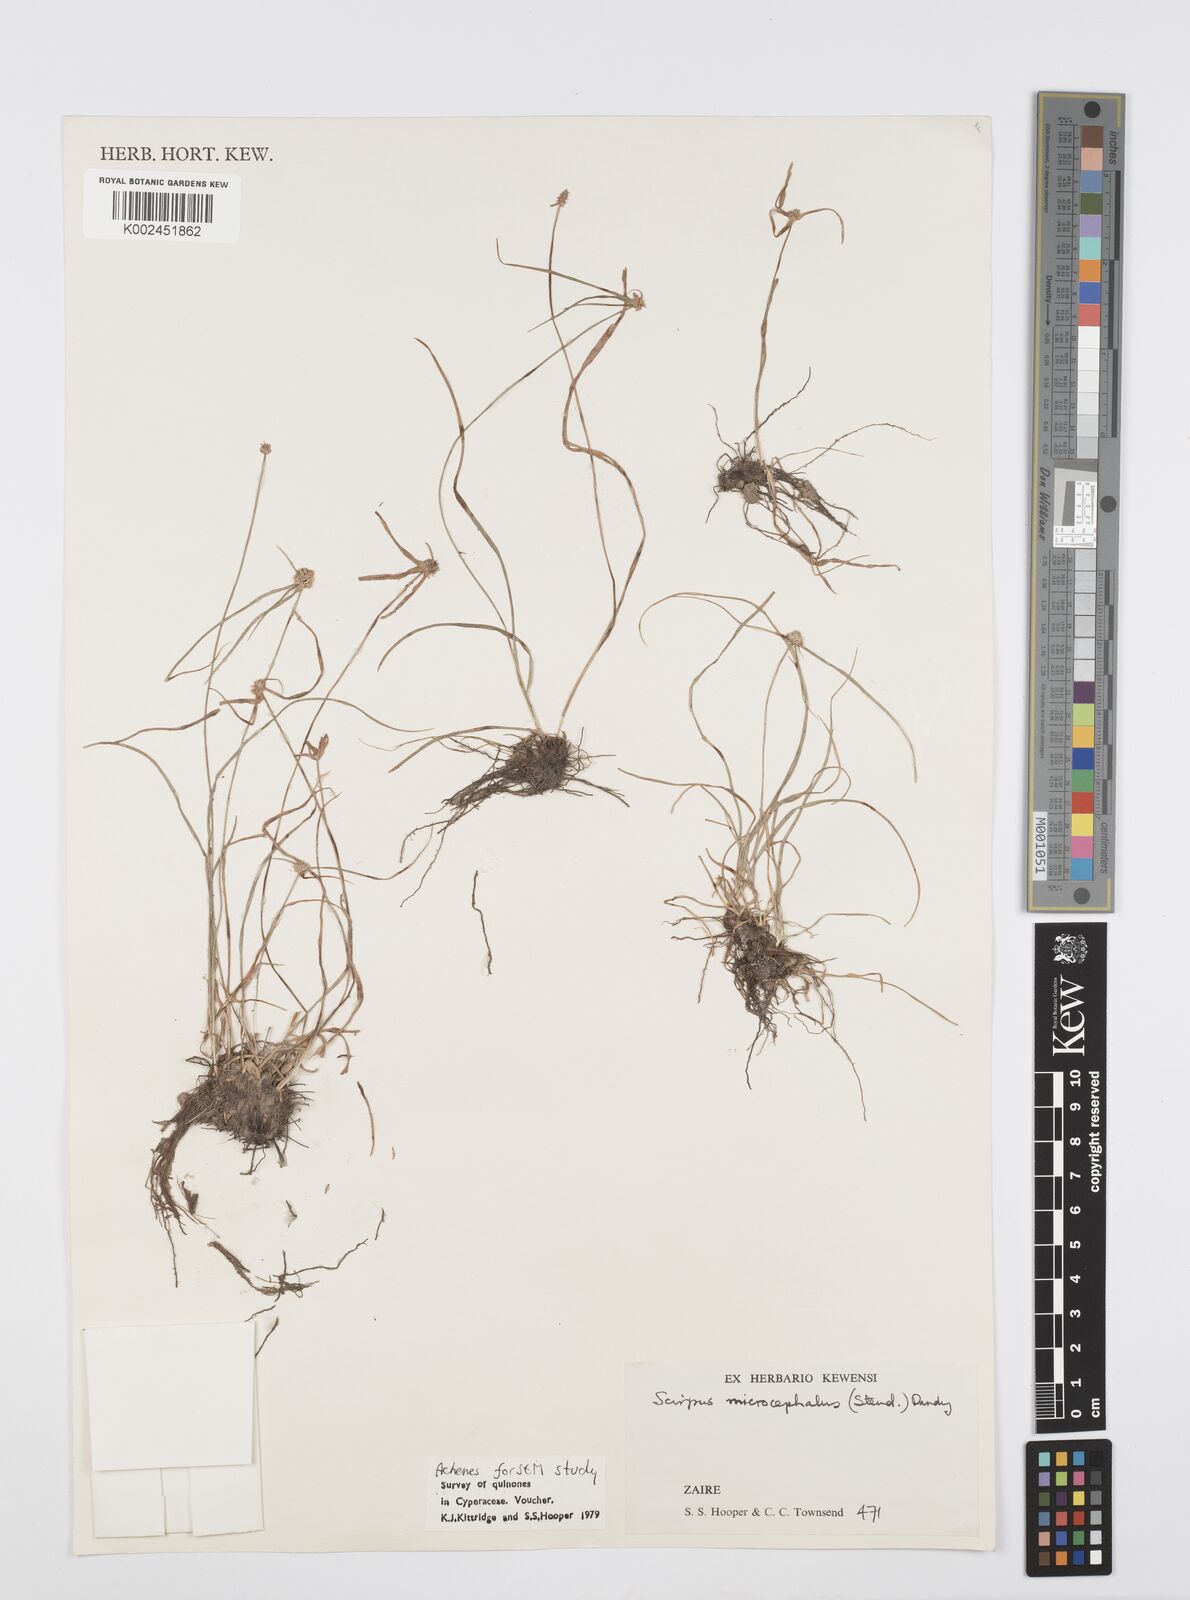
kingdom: Plantae
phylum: Tracheophyta
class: Liliopsida
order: Poales
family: Cyperaceae
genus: Cyperus
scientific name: Cyperus microcephalus
